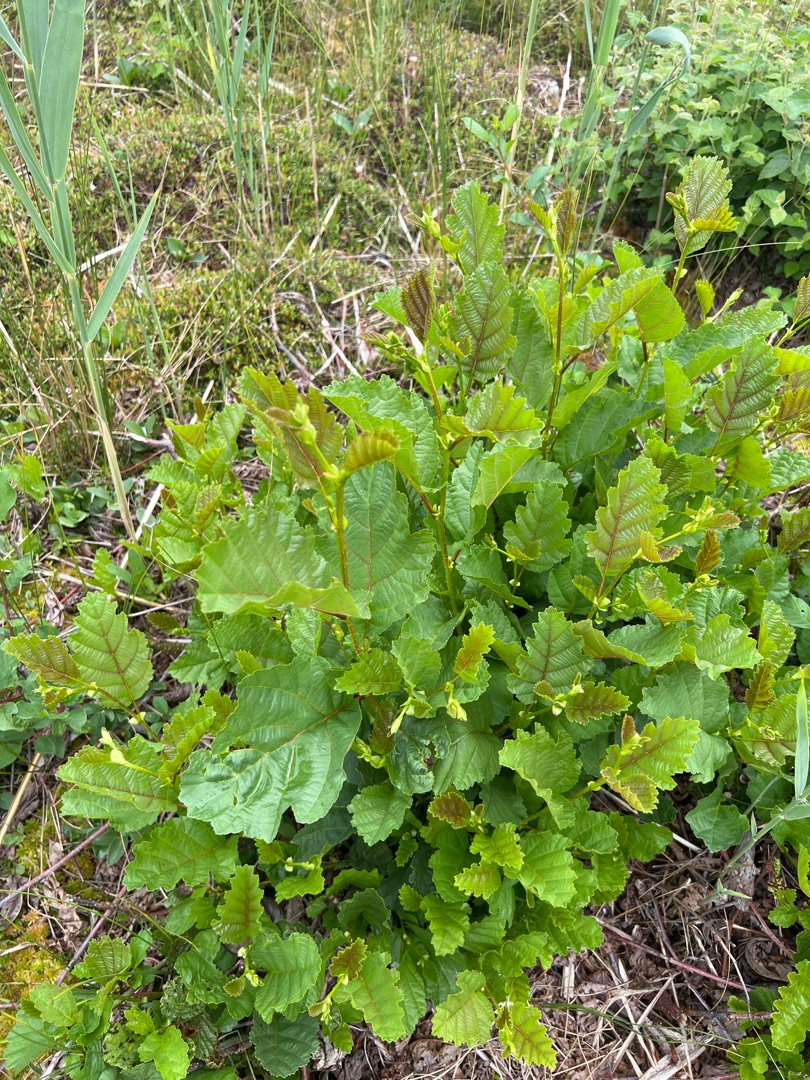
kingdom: Plantae
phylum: Tracheophyta
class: Magnoliopsida
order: Fagales
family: Betulaceae
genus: Alnus
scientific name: Alnus glutinosa
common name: Rød-el
